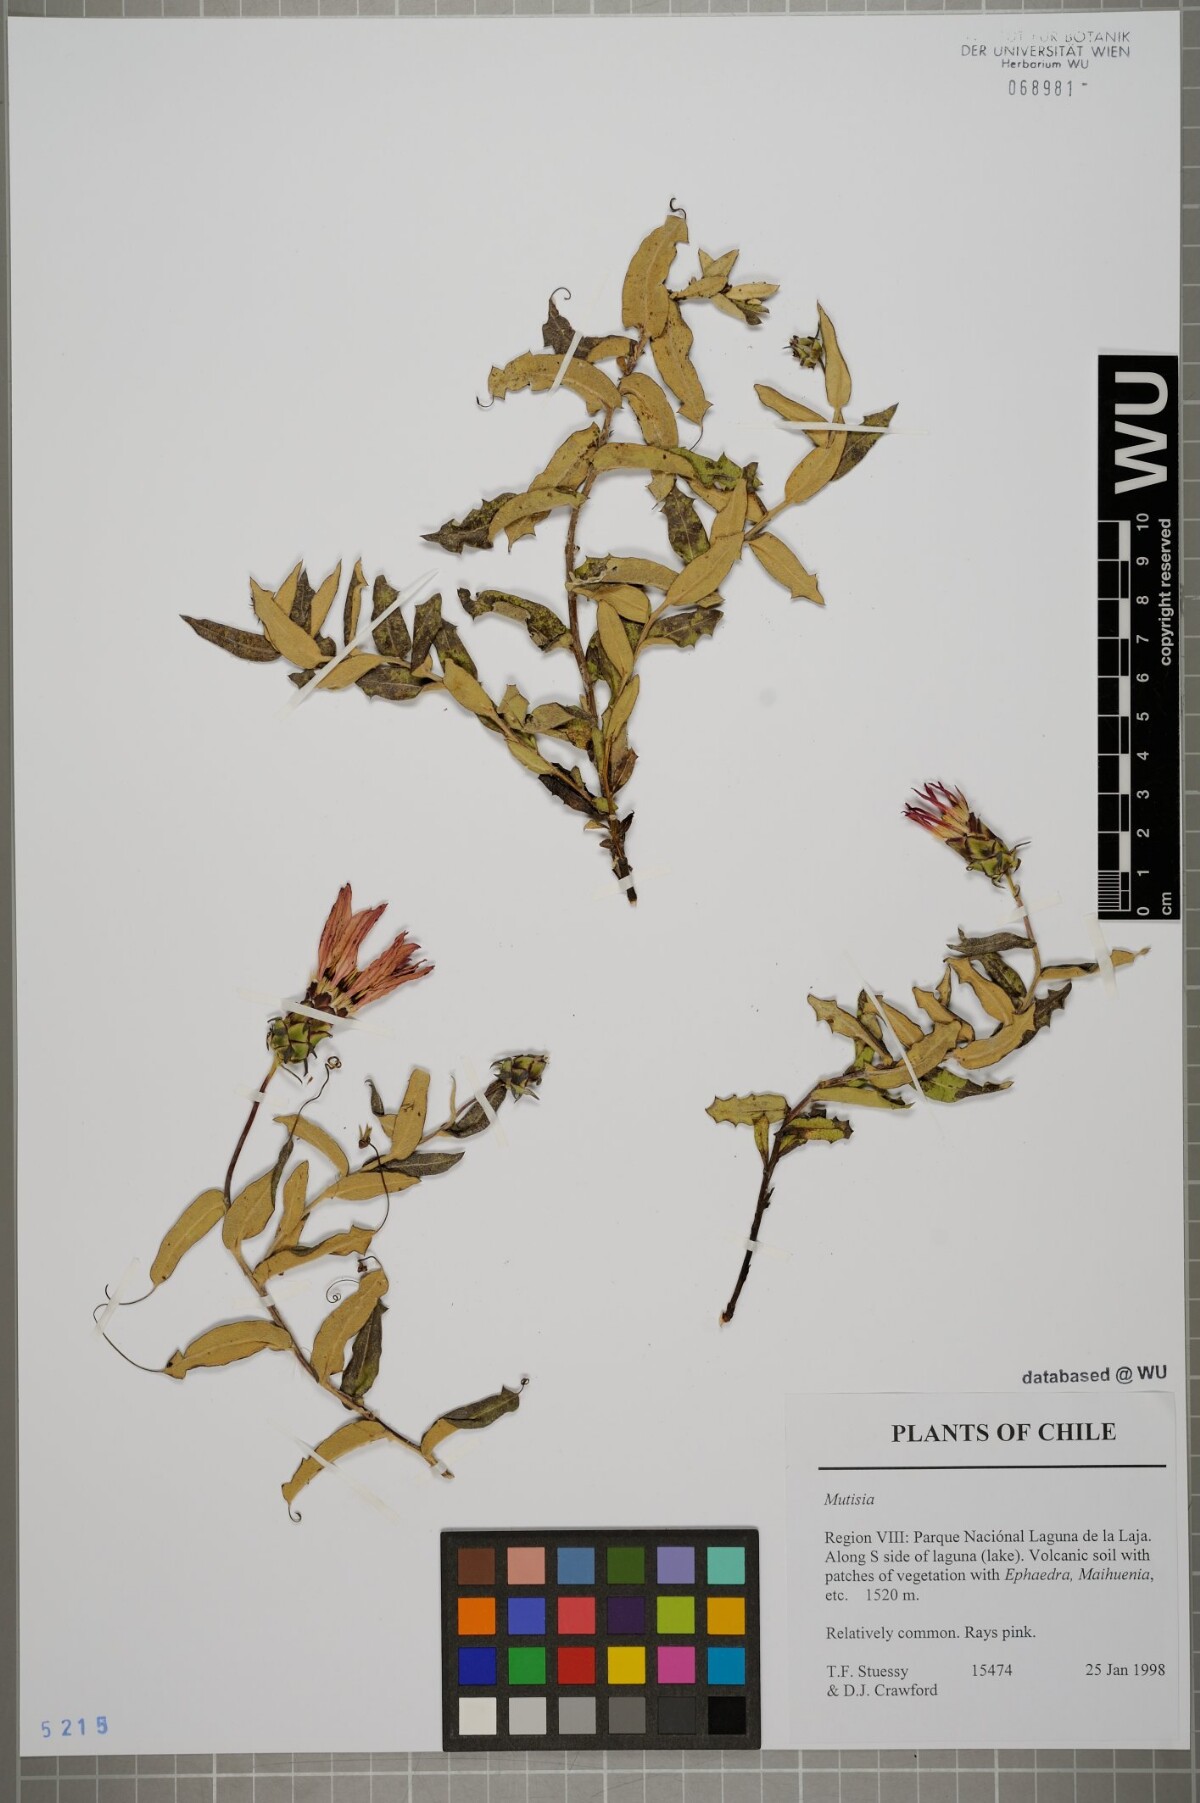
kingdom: Plantae
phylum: Tracheophyta
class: Magnoliopsida
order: Asterales
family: Asteraceae
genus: Mutisia
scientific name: Mutisia
